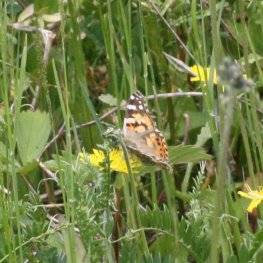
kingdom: Animalia
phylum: Arthropoda
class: Insecta
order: Lepidoptera
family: Nymphalidae
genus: Vanessa
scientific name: Vanessa virginiensis
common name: American Lady
